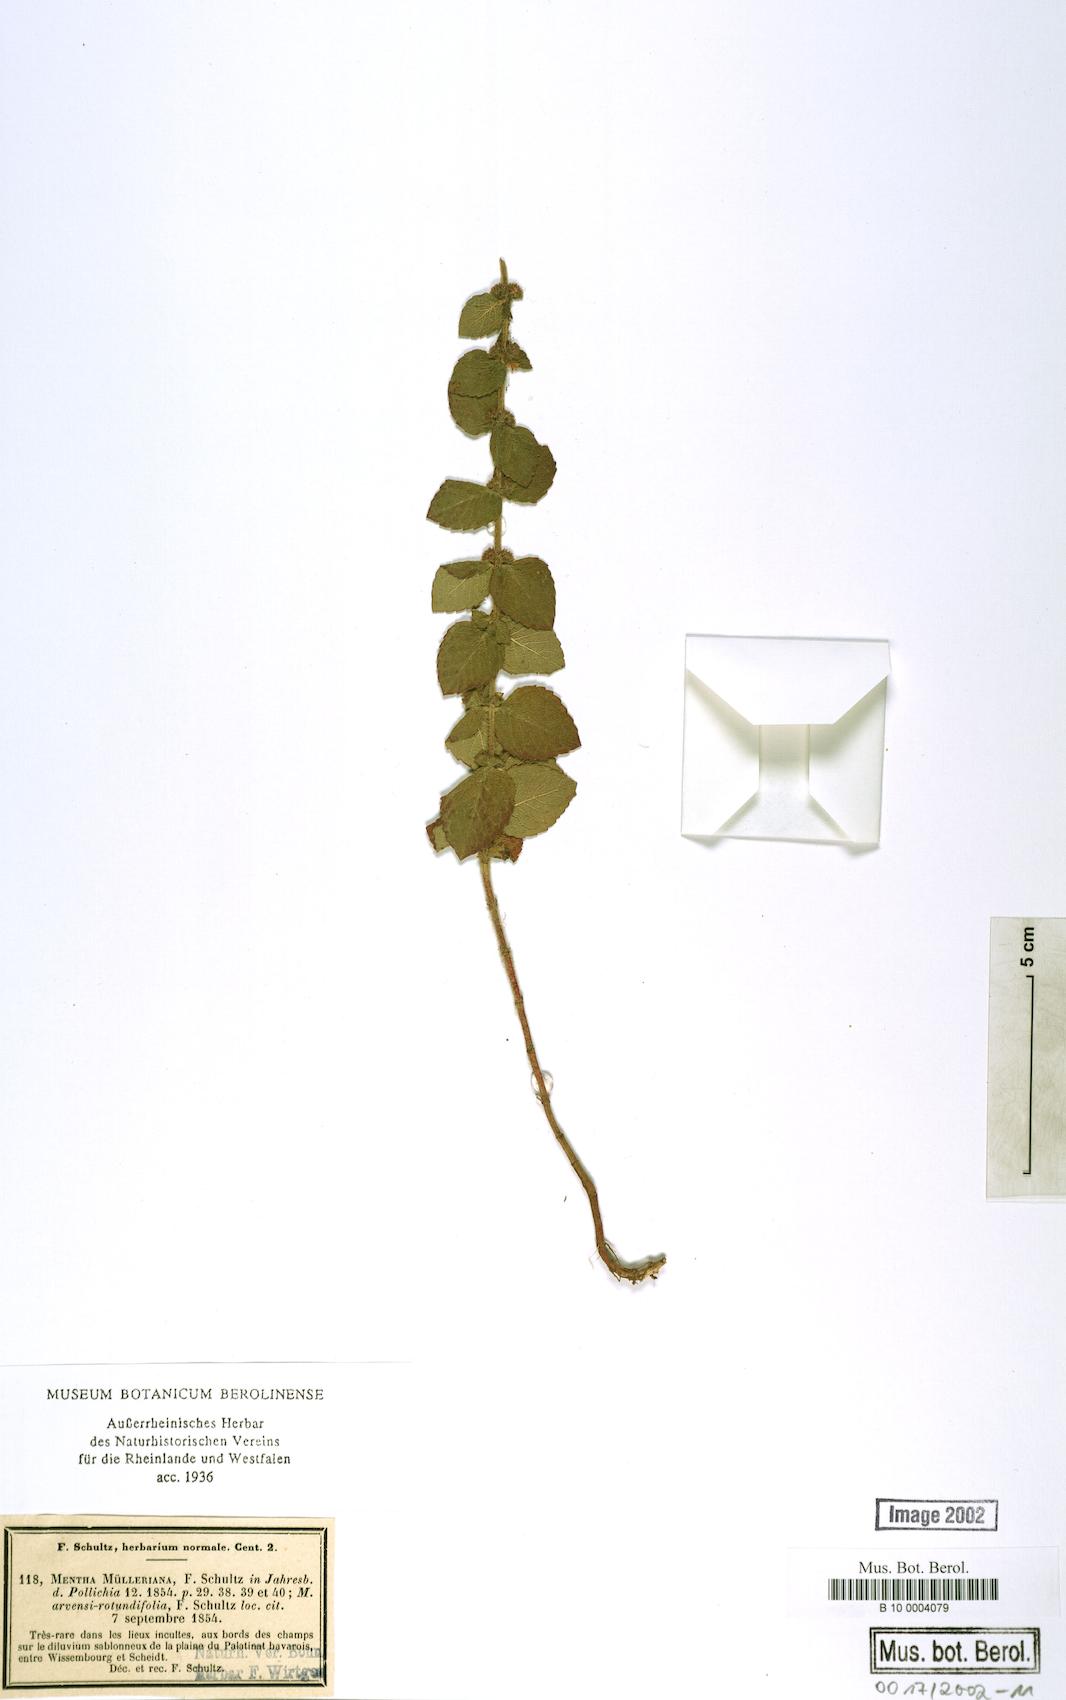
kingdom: Plantae
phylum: Tracheophyta
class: Magnoliopsida
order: Lamiales
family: Lamiaceae
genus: Mentha
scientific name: Mentha carinthiaca
